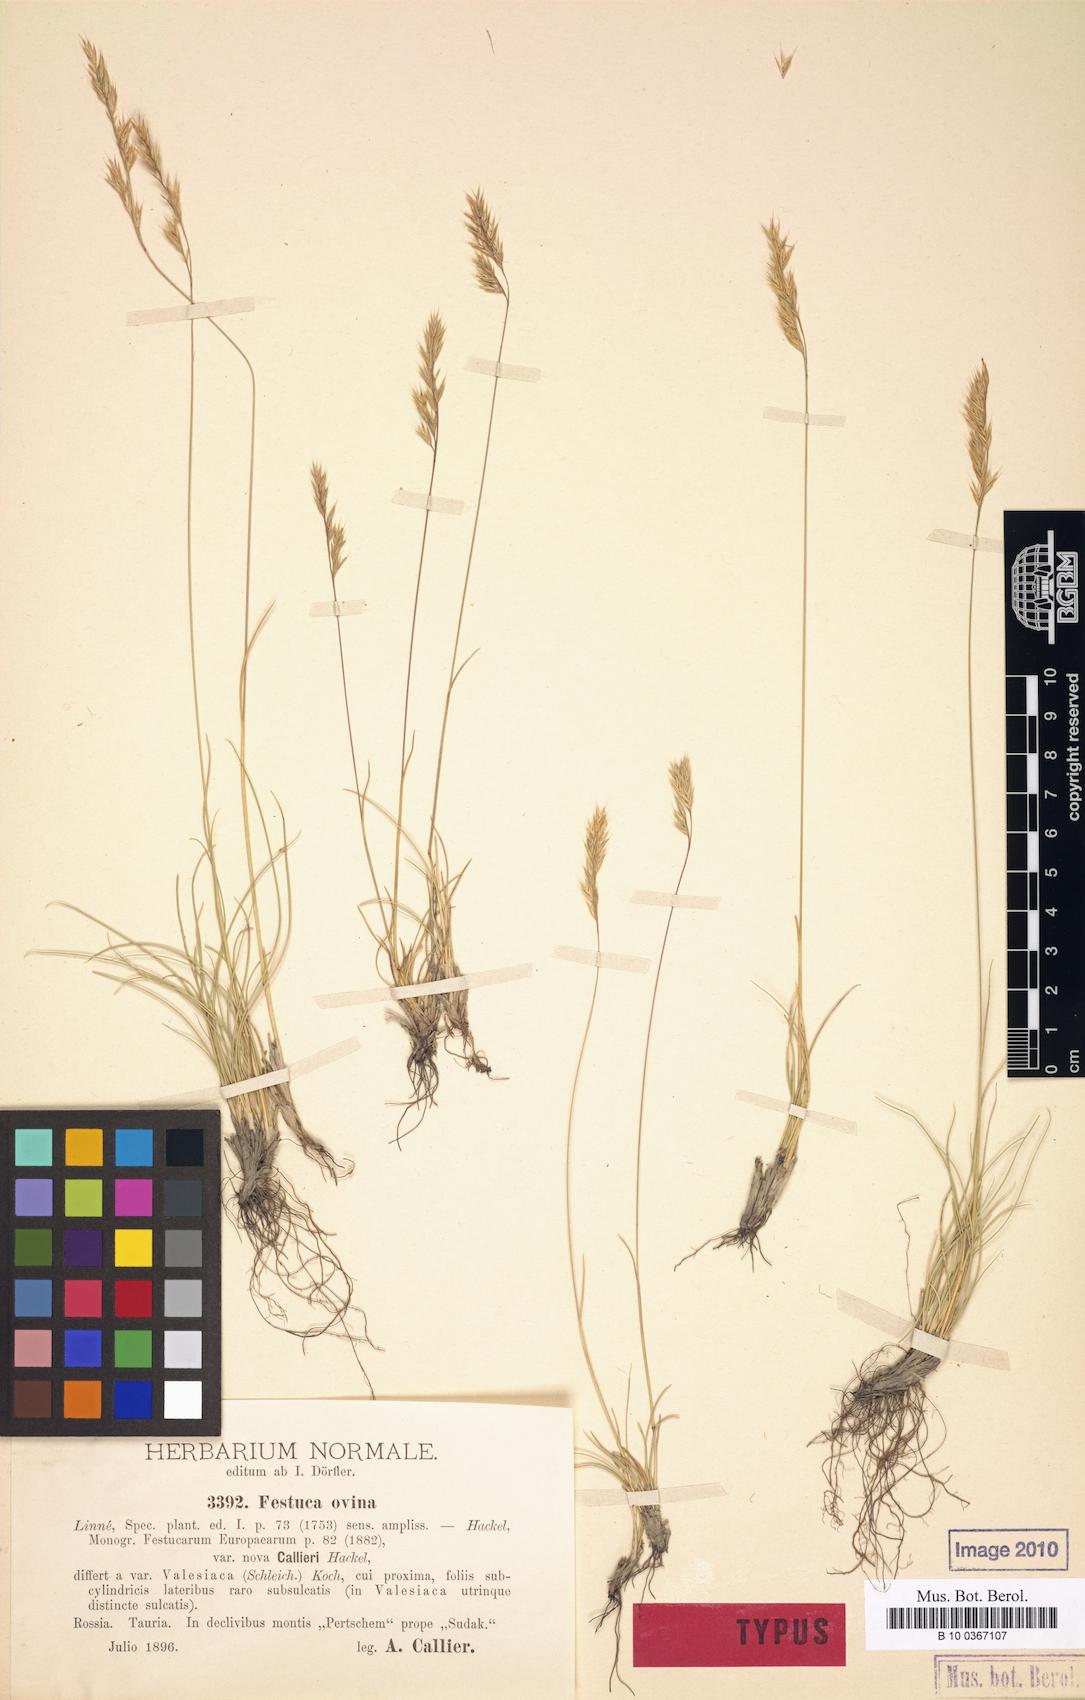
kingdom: Plantae
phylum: Tracheophyta
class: Liliopsida
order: Poales
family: Poaceae
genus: Festuca
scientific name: Festuca callieri
